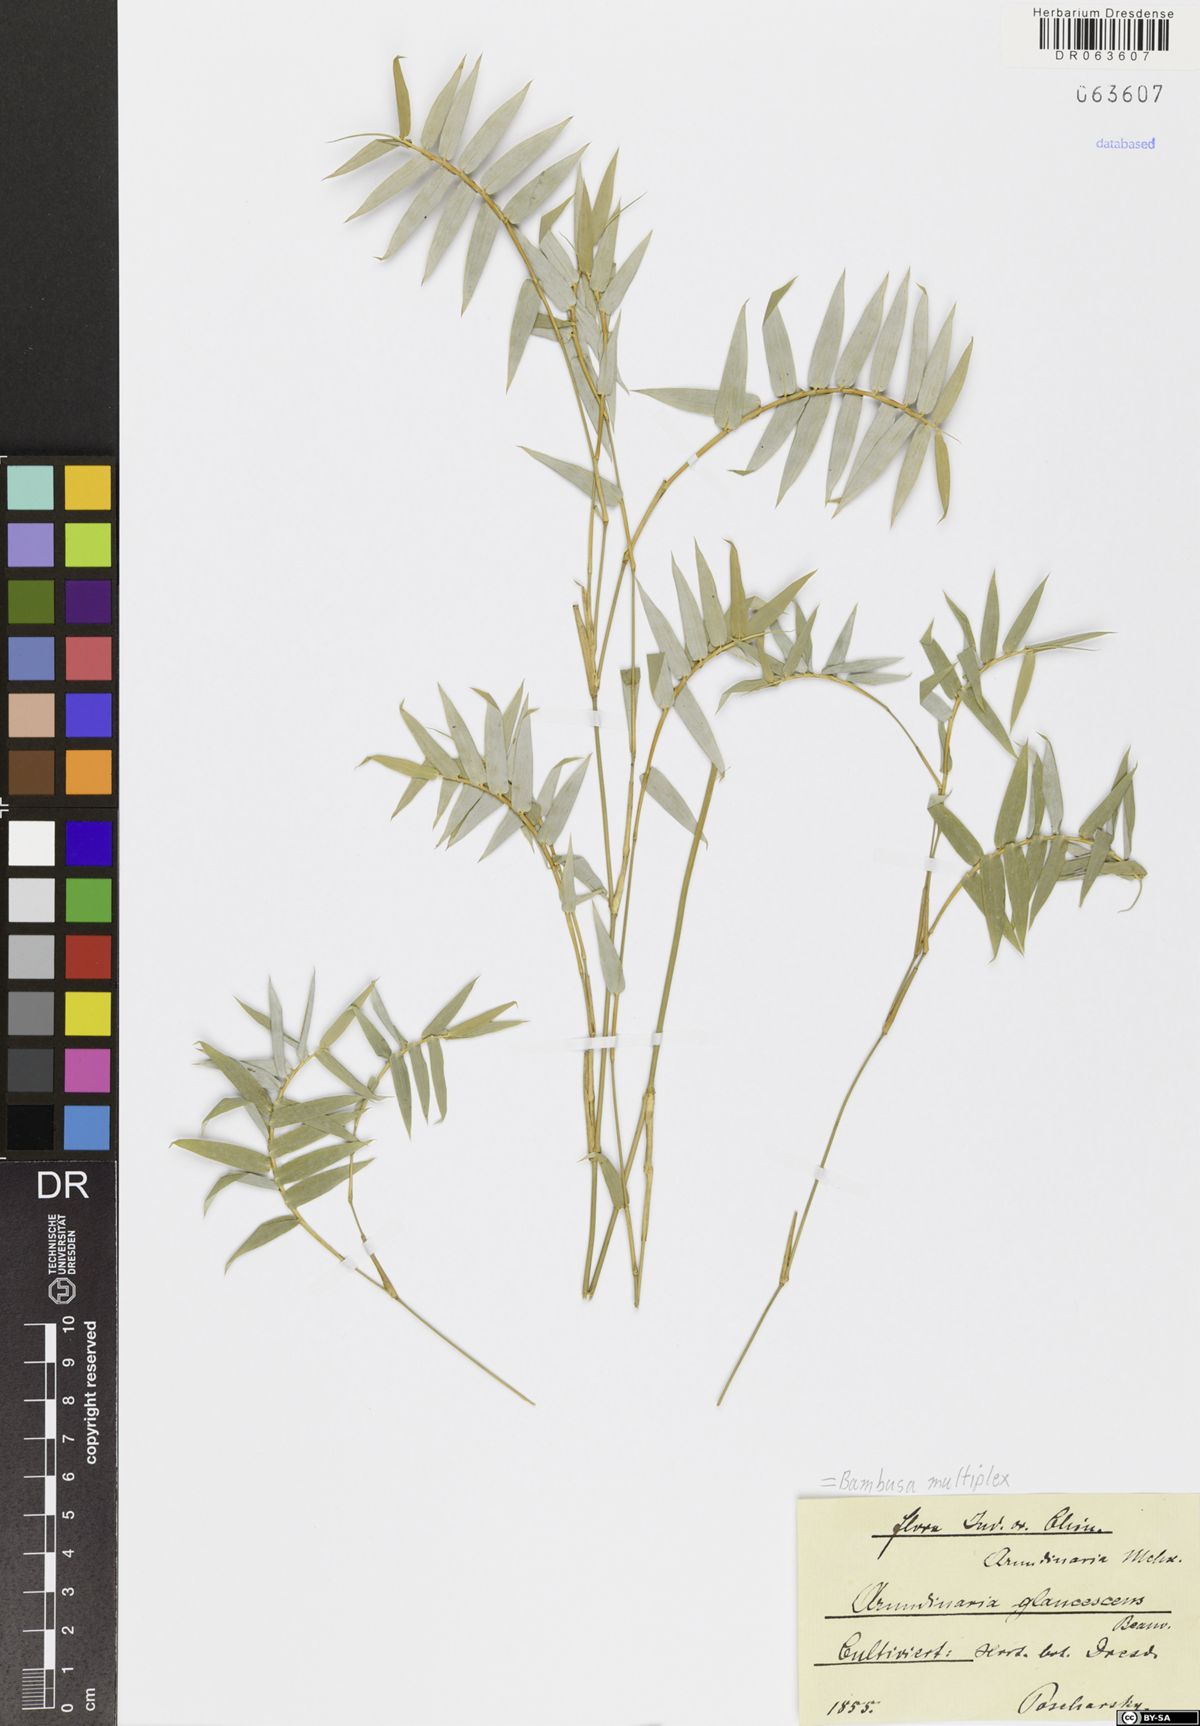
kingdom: Plantae
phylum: Tracheophyta
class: Liliopsida
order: Poales
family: Poaceae
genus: Bambusa
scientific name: Bambusa multiplex
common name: Hedge bamboo
